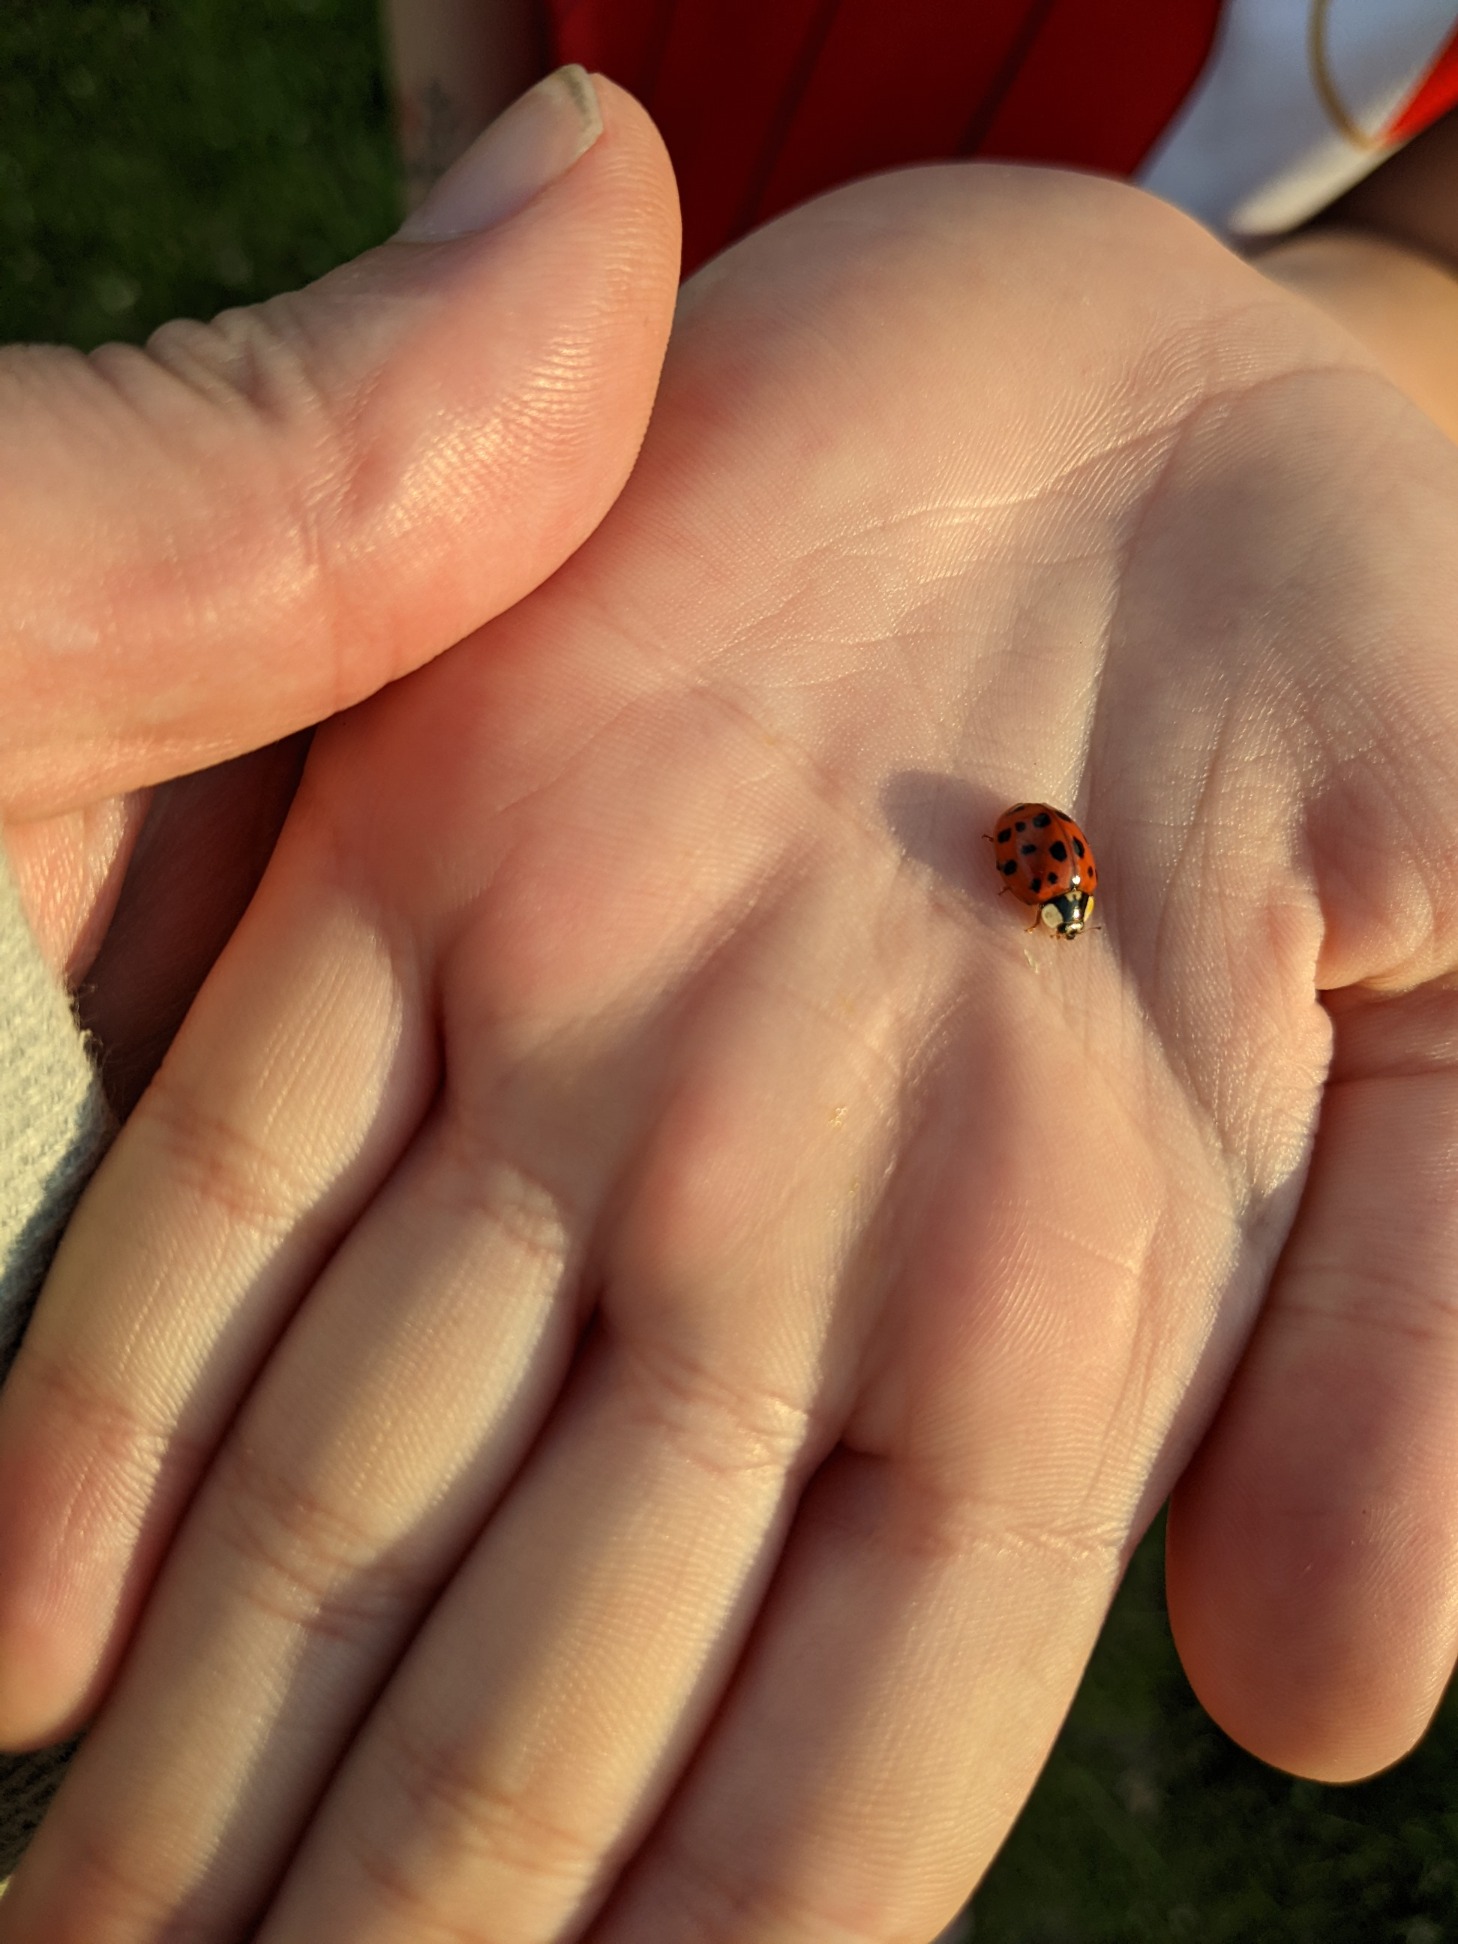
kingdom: Animalia
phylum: Arthropoda
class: Insecta
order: Coleoptera
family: Coccinellidae
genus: Harmonia
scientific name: Harmonia axyridis
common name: Harlekinmariehøne
